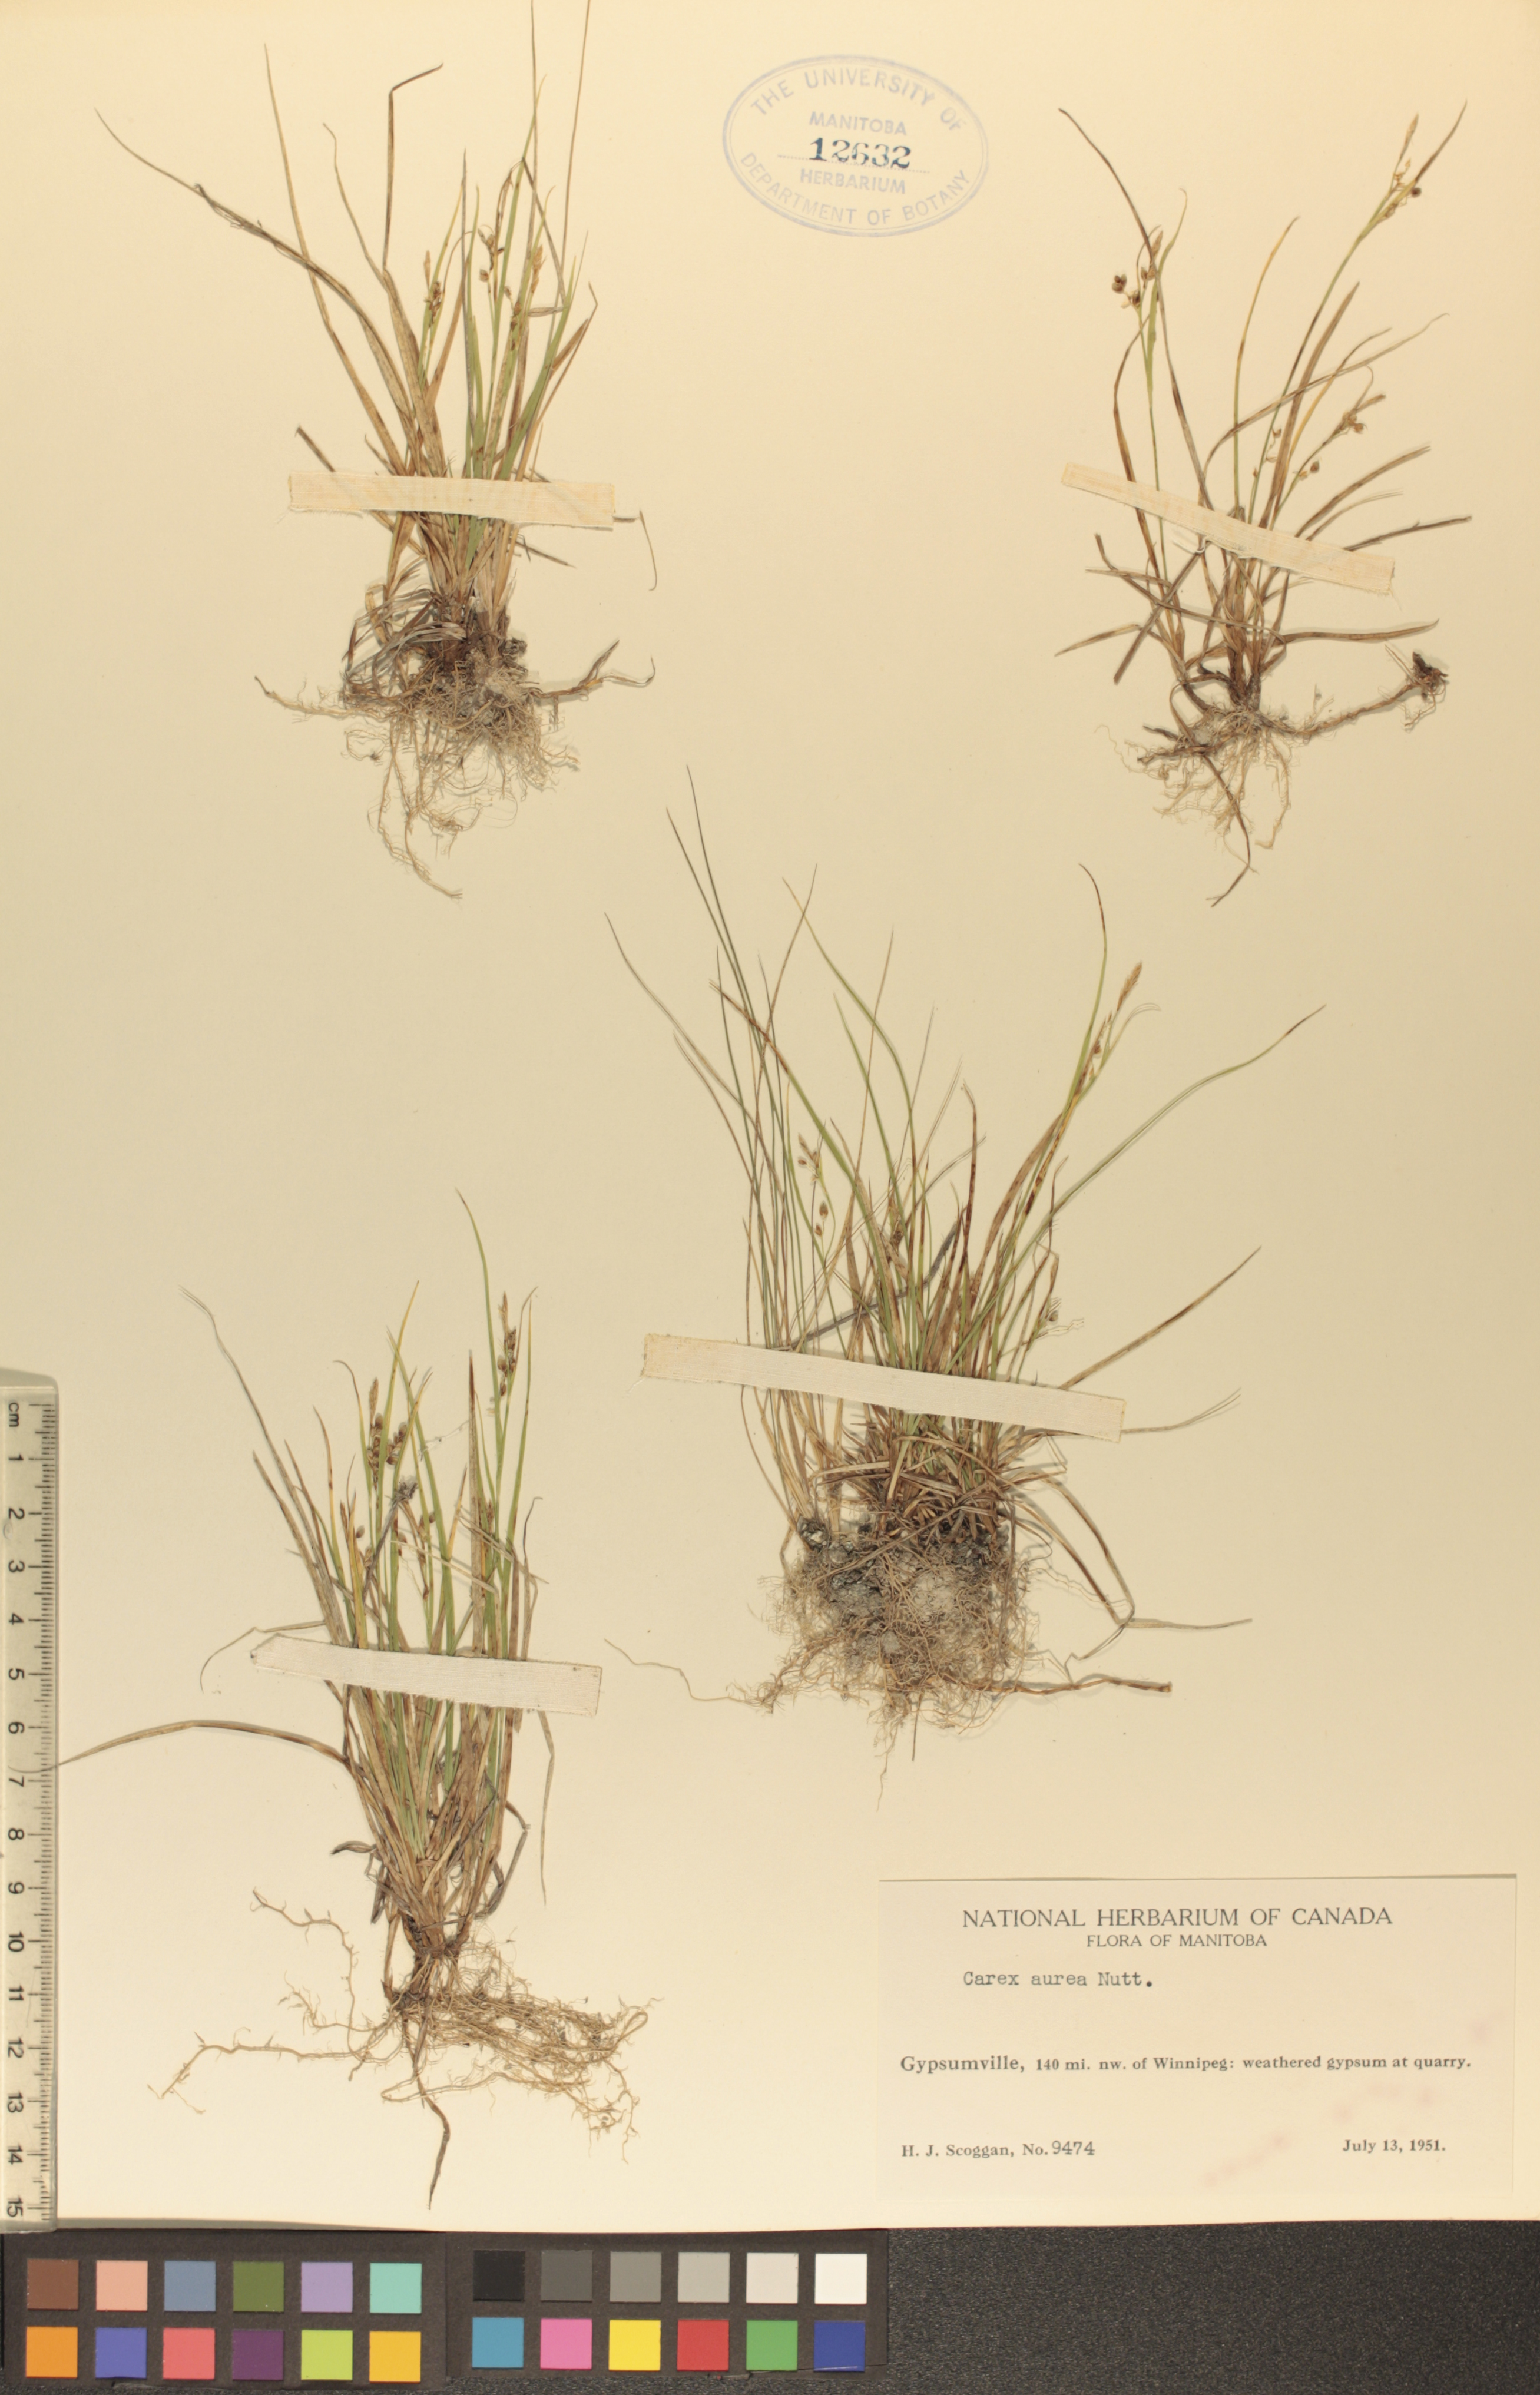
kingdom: Plantae
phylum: Tracheophyta
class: Liliopsida
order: Poales
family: Cyperaceae
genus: Carex
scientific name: Carex aurea
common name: Golden sedge
